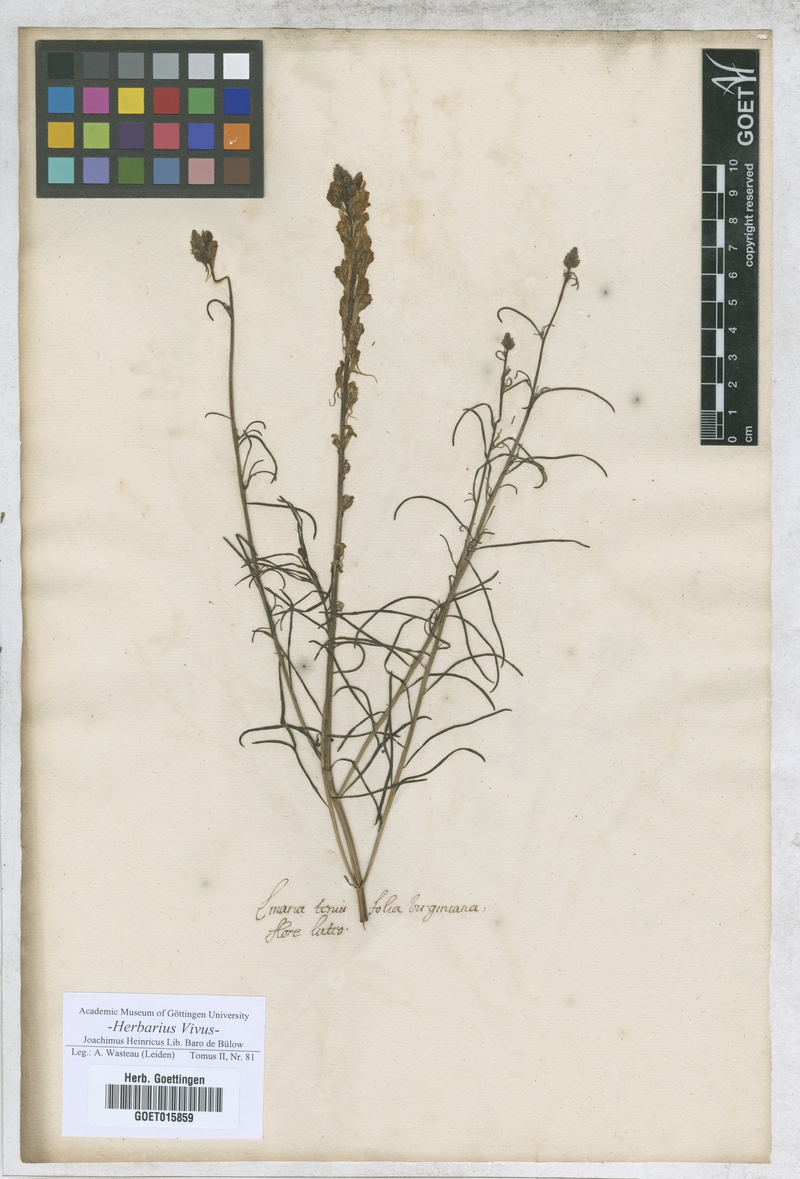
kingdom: Plantae
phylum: Tracheophyta
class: Magnoliopsida
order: Lamiales
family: Plantaginaceae
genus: Linaria
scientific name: Linaria
